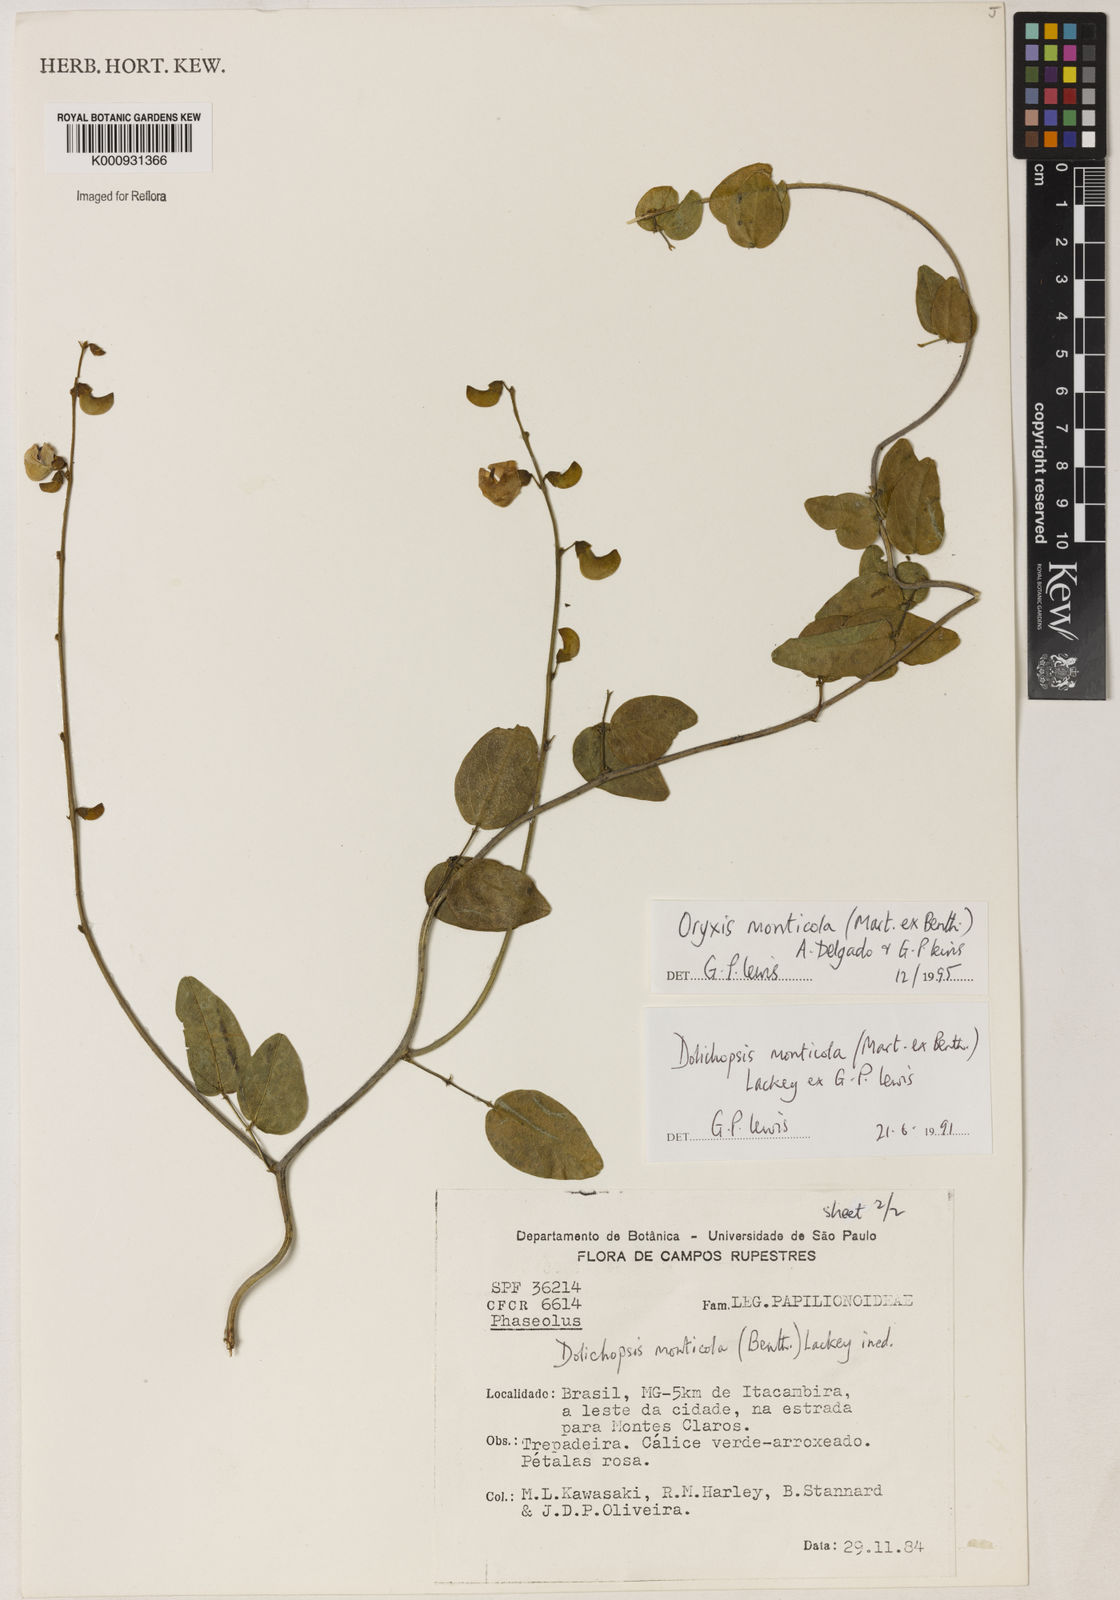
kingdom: Plantae
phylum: Tracheophyta
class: Magnoliopsida
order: Fabales
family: Fabaceae
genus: Dolichopsis
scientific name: Dolichopsis monticola
